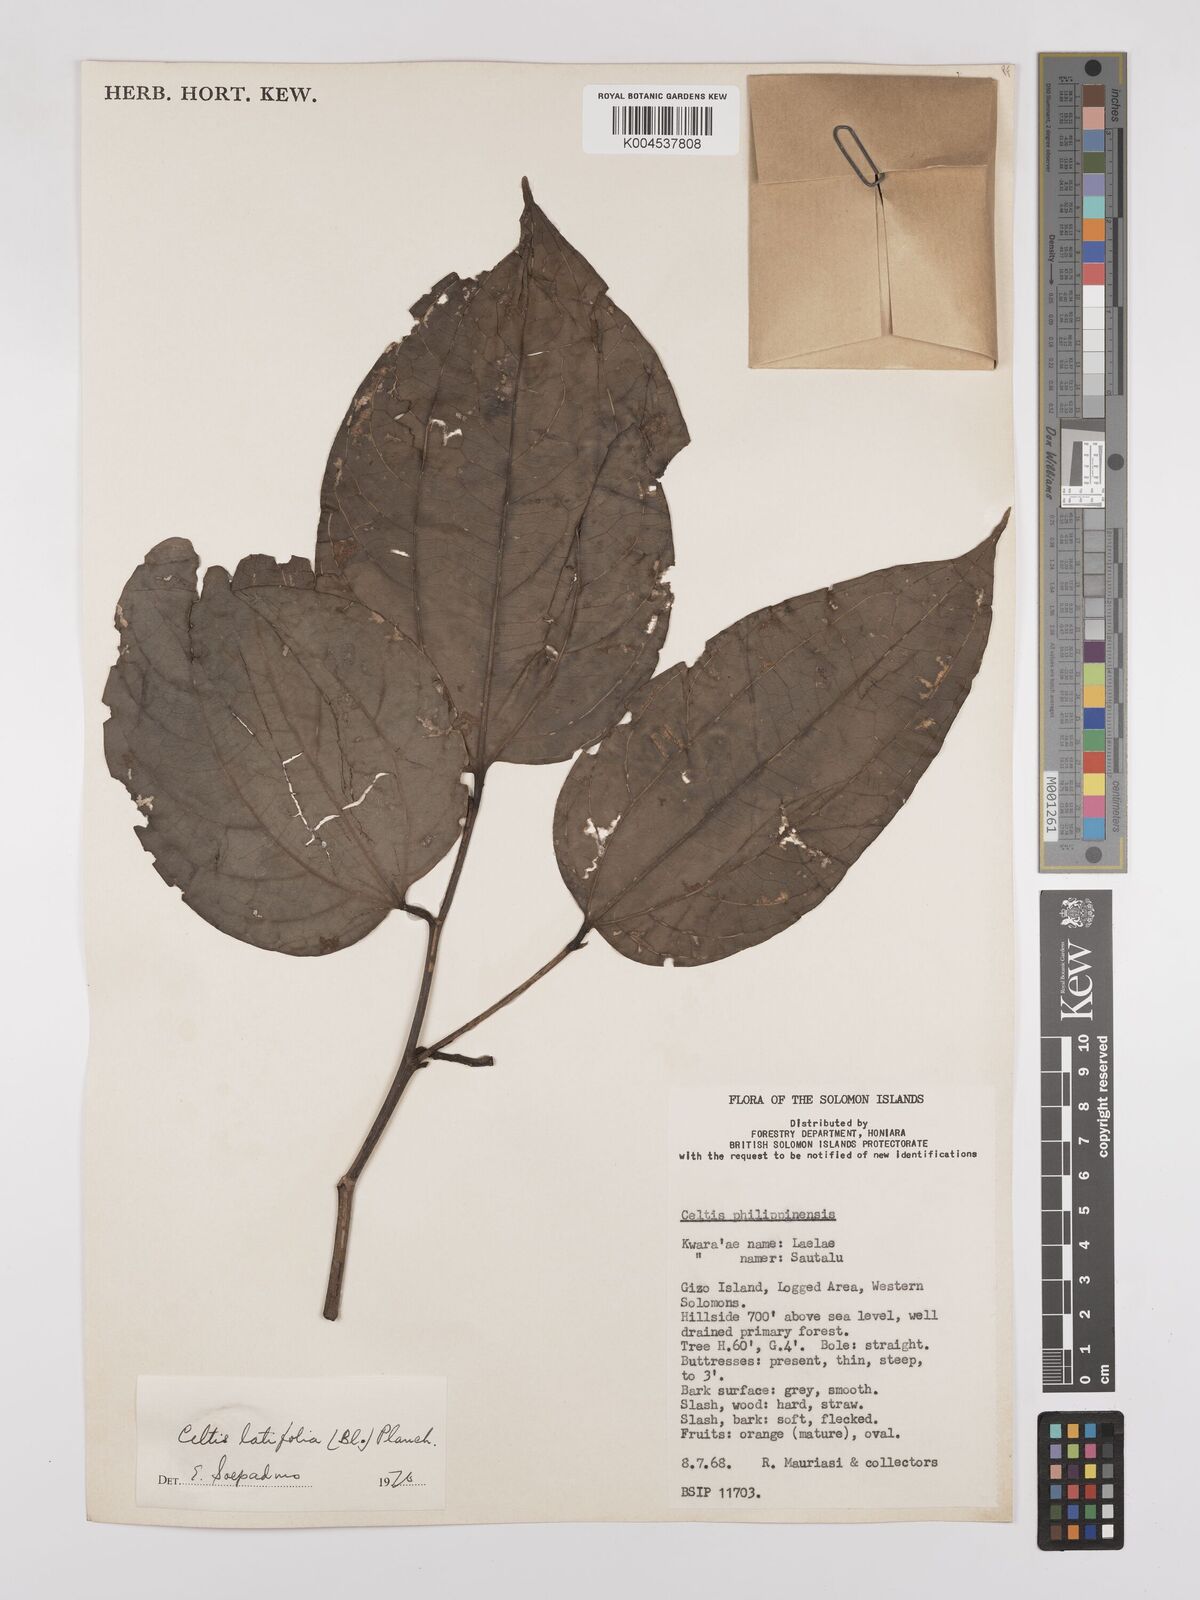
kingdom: Plantae
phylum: Tracheophyta
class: Magnoliopsida
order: Rosales
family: Cannabaceae
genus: Celtis
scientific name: Celtis latifolia
